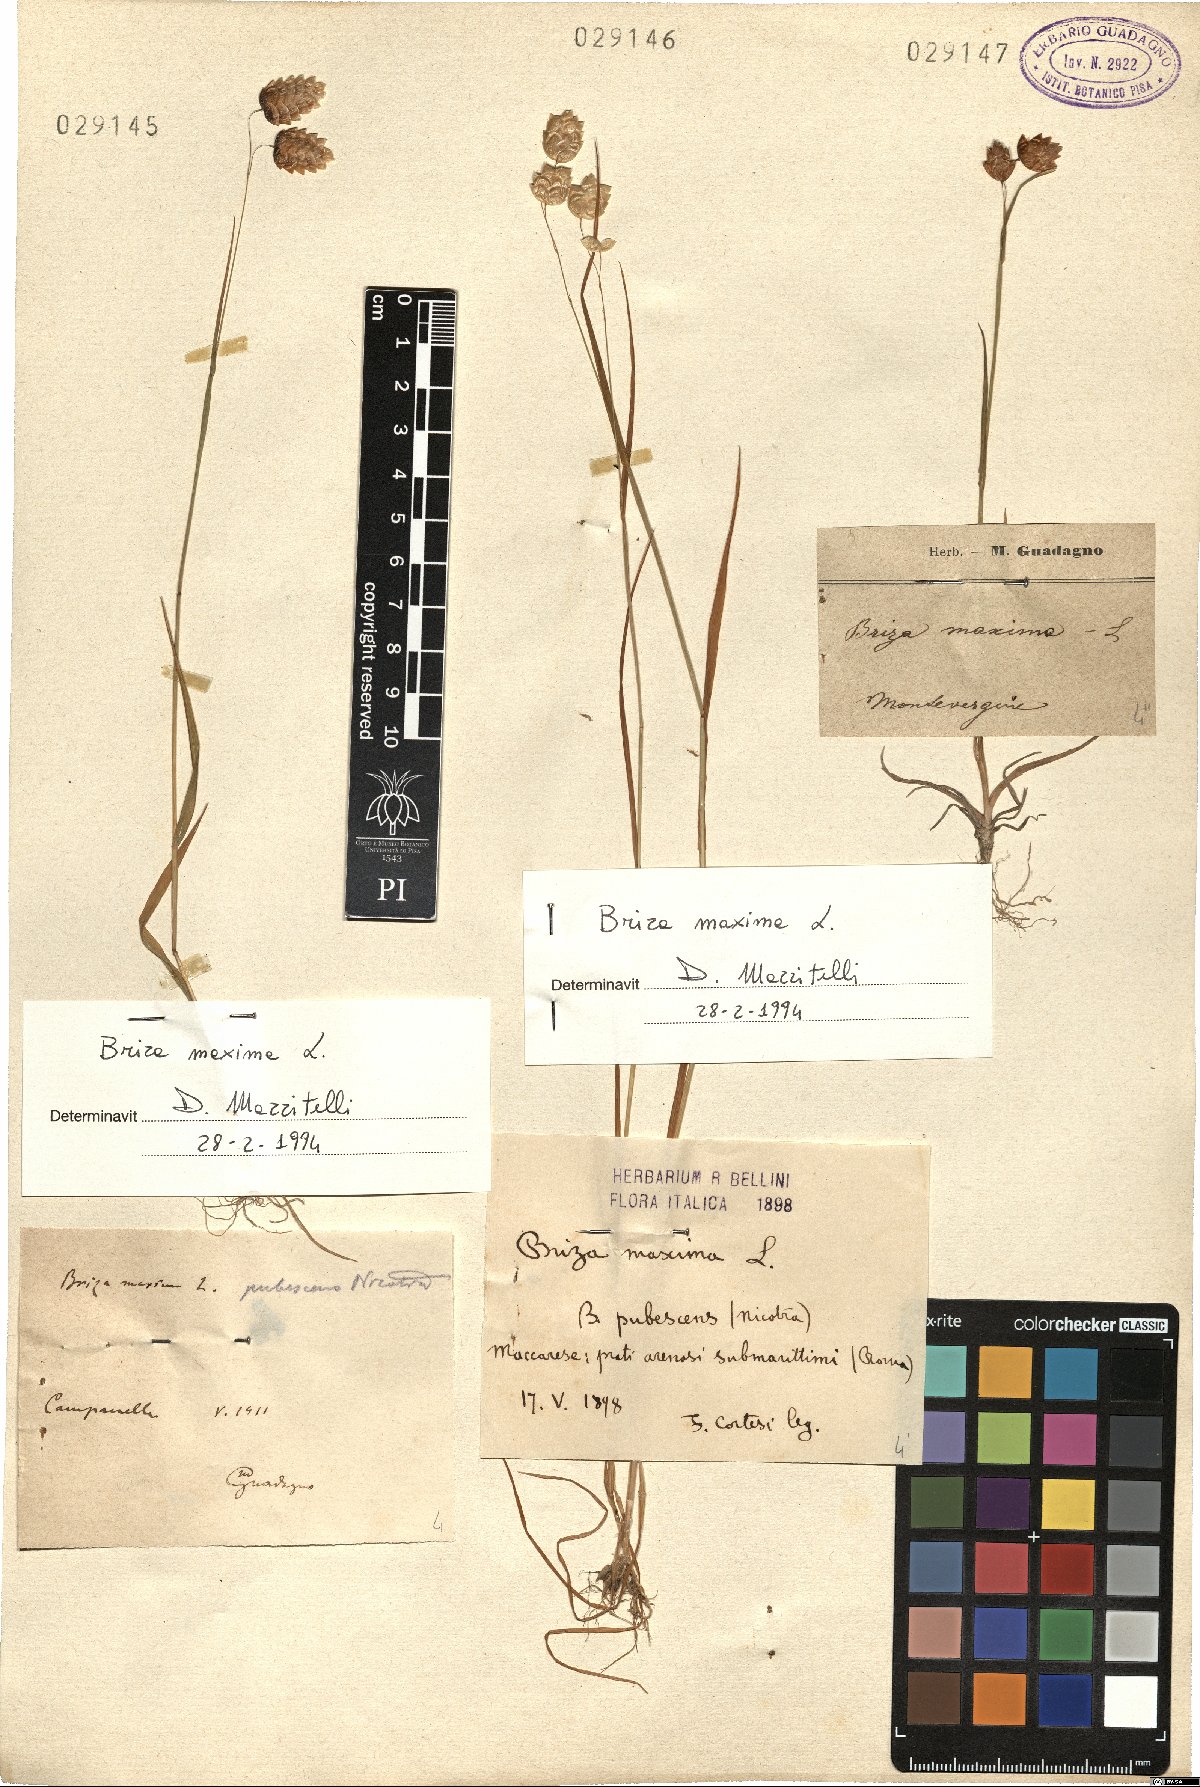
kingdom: Plantae
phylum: Tracheophyta
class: Liliopsida
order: Poales
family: Poaceae
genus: Briza
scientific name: Briza maxima
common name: Big quakinggrass
